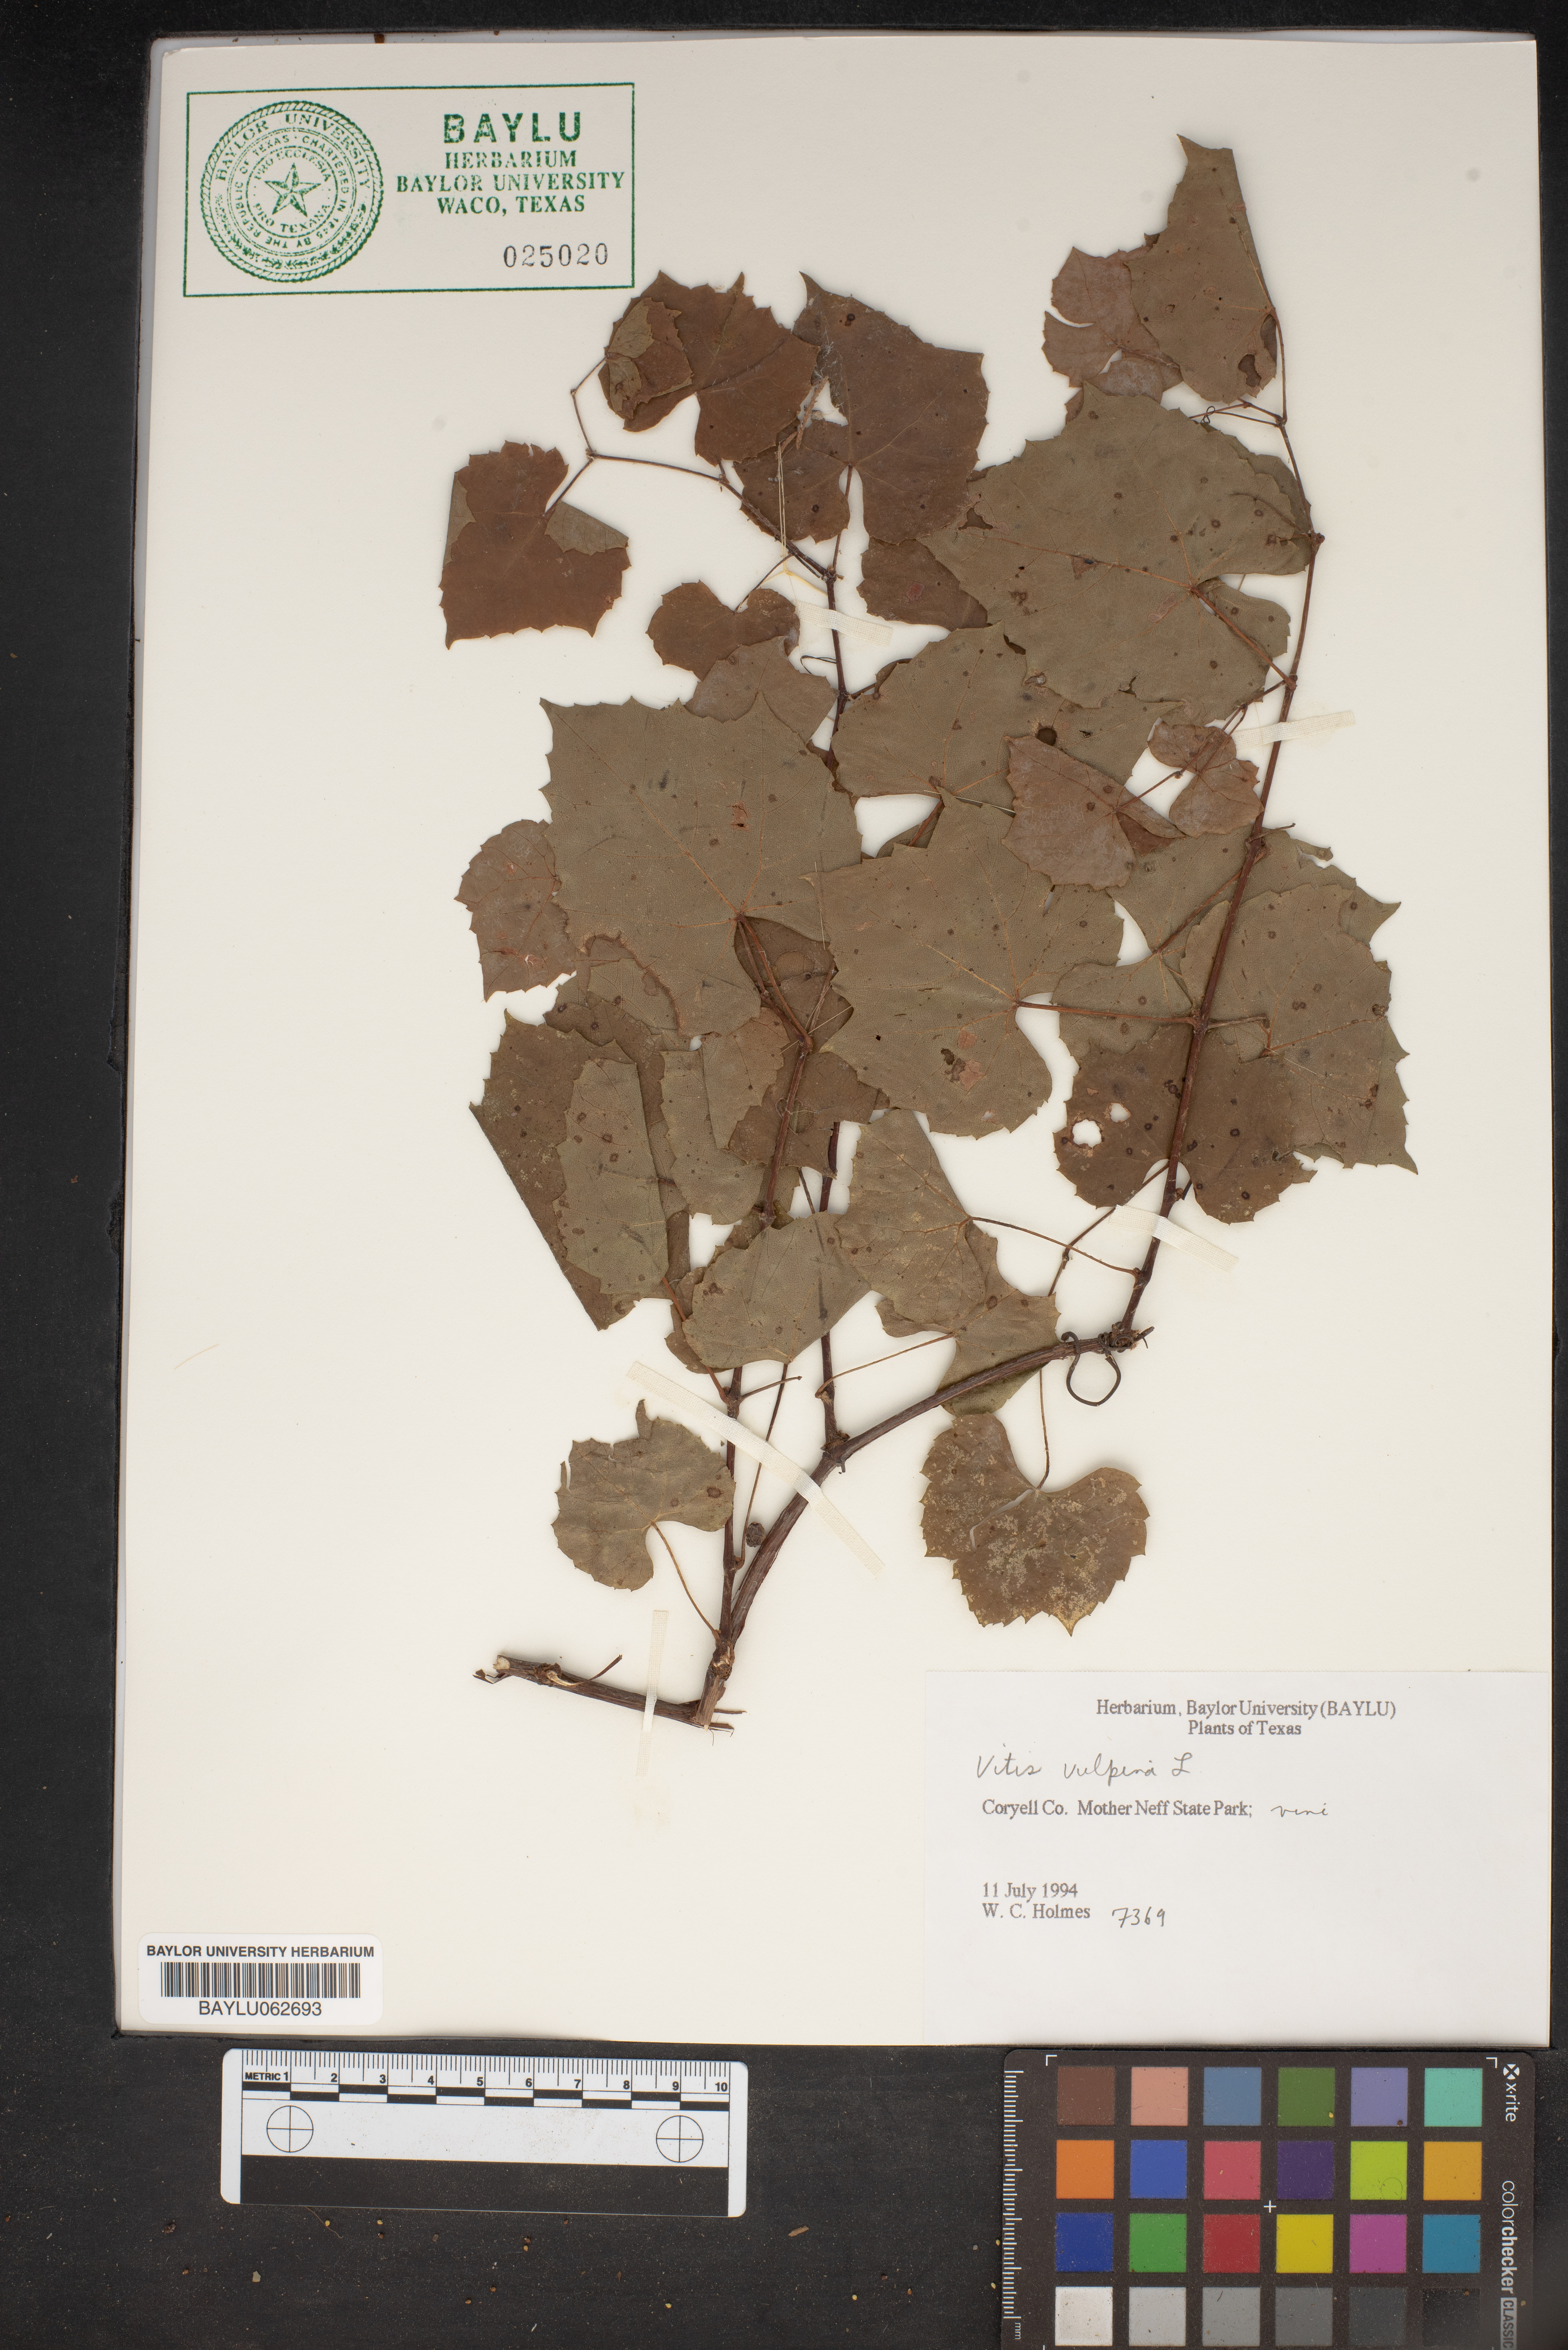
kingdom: Plantae
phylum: Tracheophyta
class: Magnoliopsida
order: Vitales
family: Vitaceae
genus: Vitis
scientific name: Vitis vulpina
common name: Frost grape
